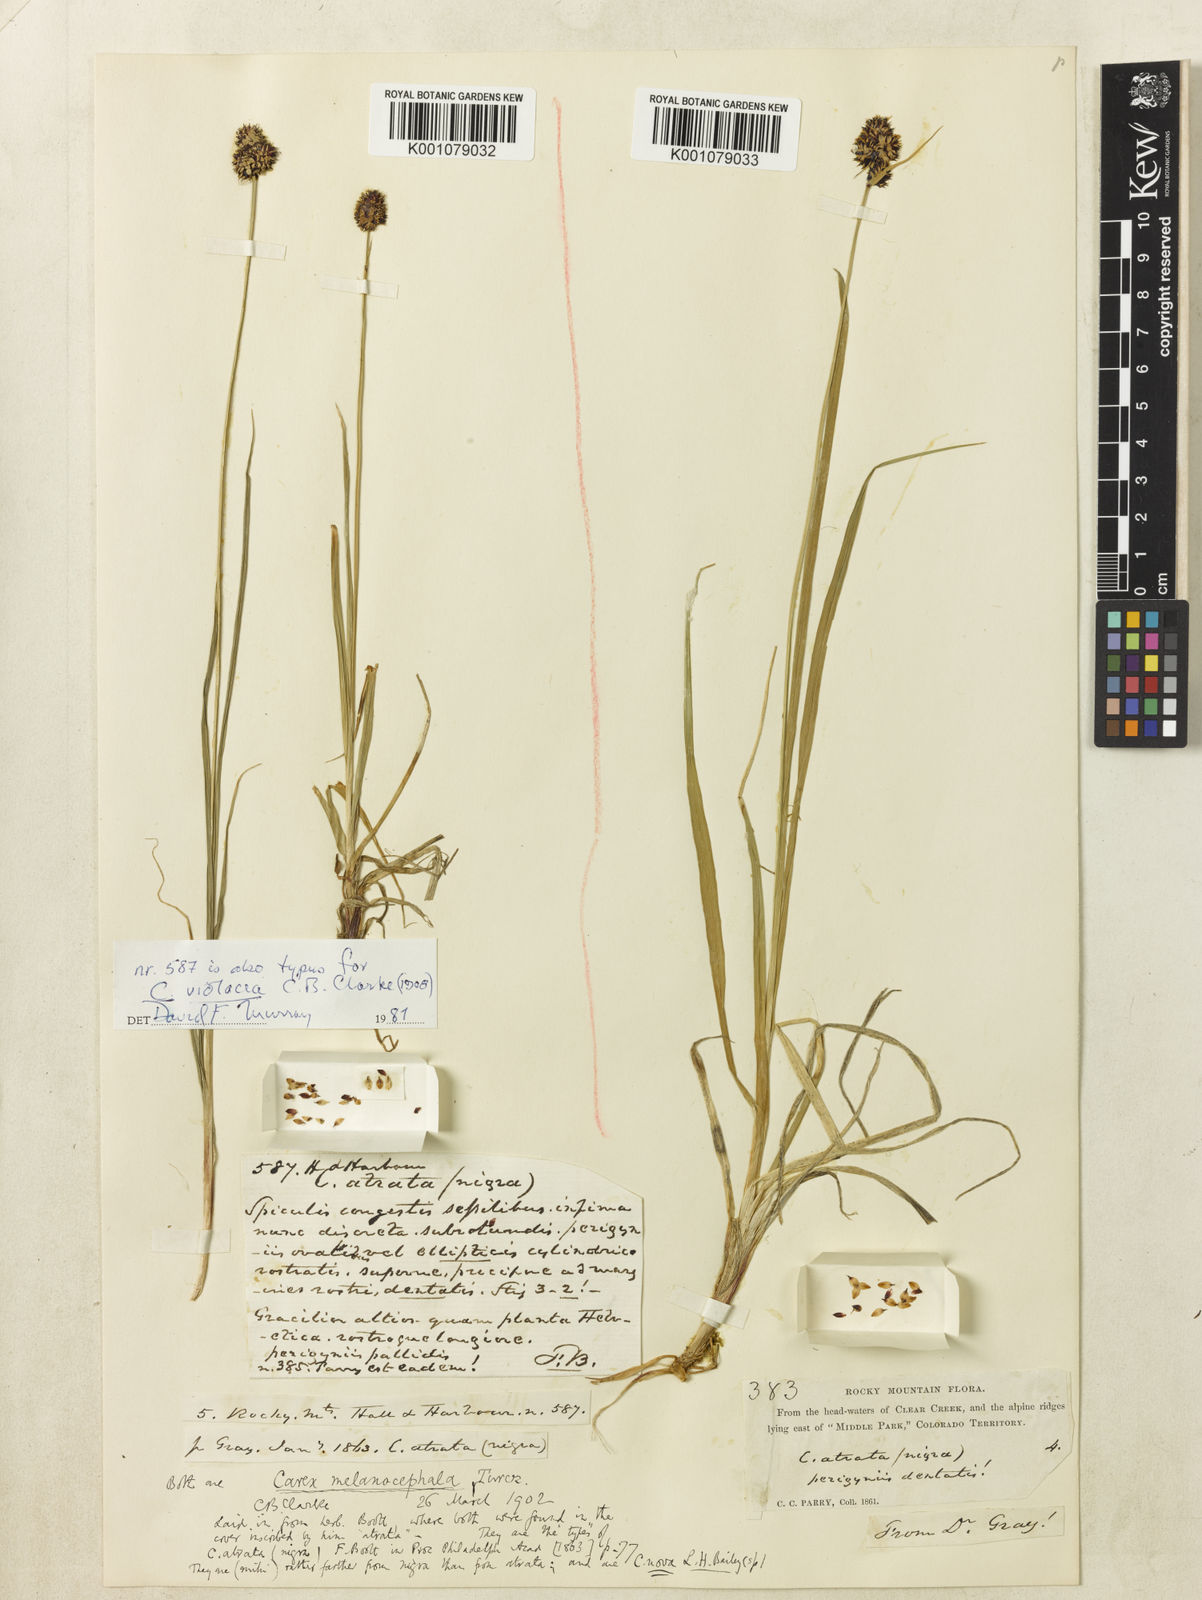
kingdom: Plantae
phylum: Tracheophyta
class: Liliopsida
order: Poales
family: Cyperaceae
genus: Carex
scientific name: Carex nova
